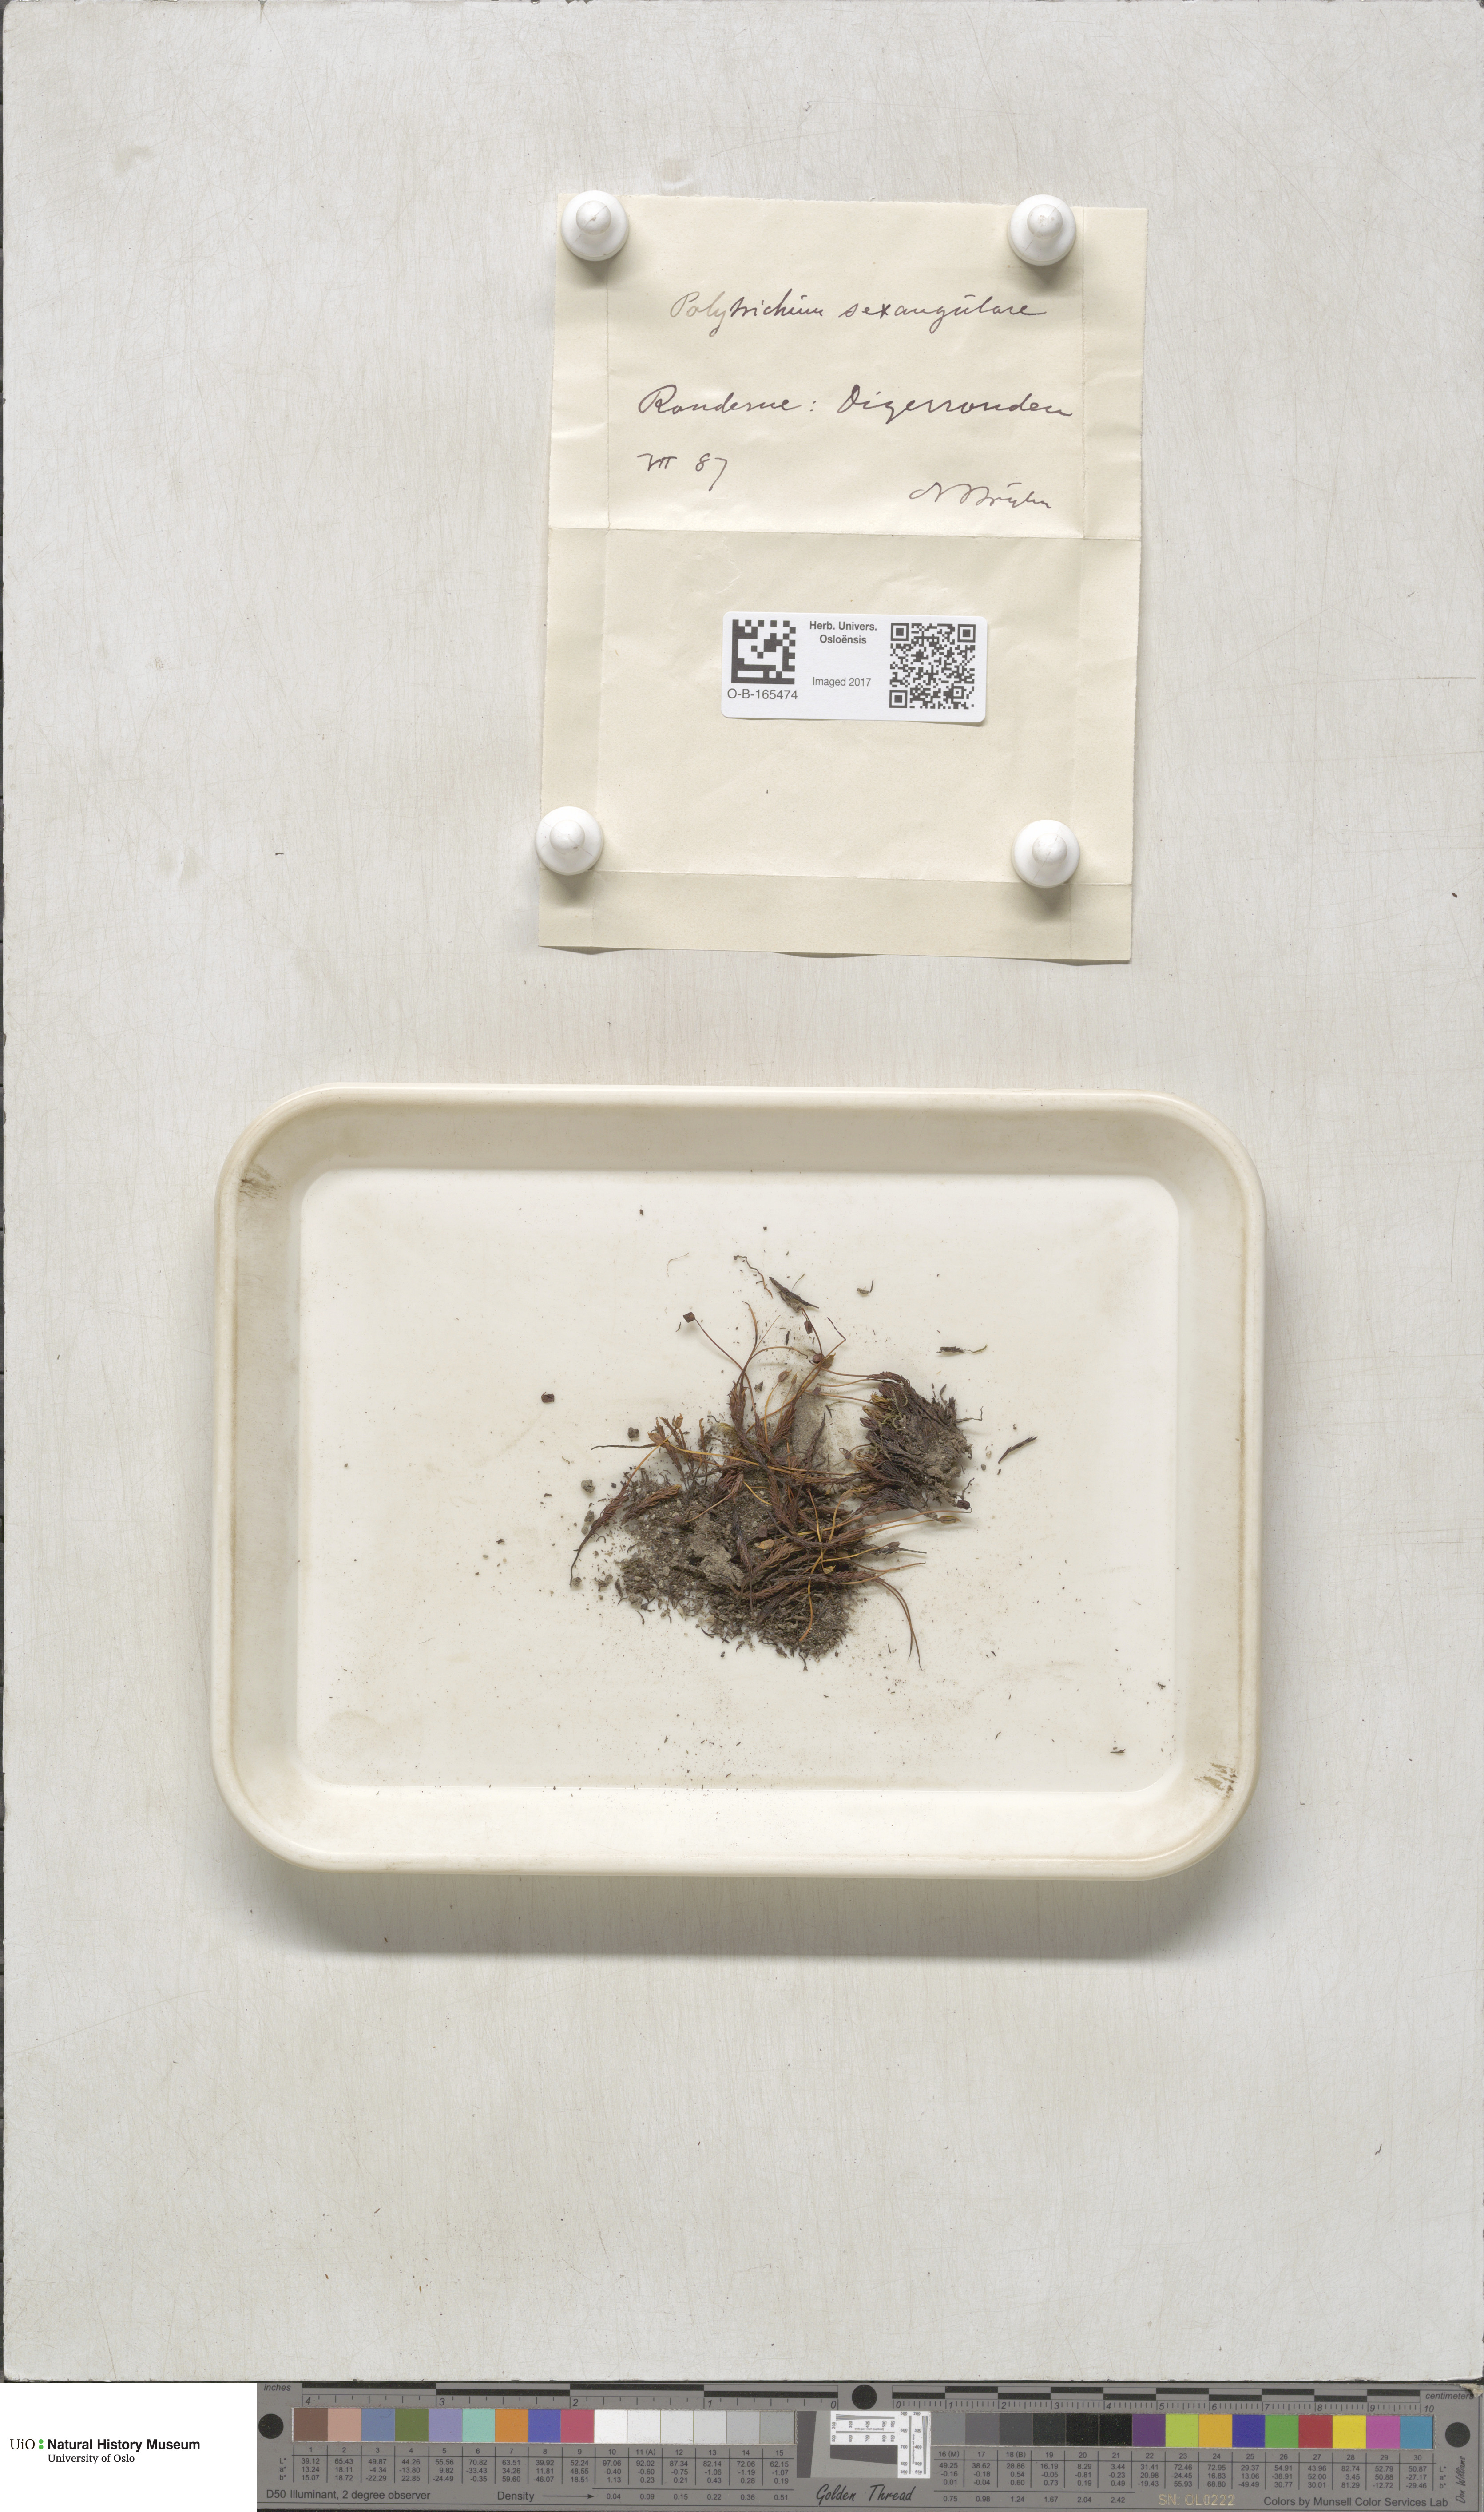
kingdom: Plantae
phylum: Bryophyta
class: Polytrichopsida
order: Polytrichales
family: Polytrichaceae
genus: Polytrichastrum
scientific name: Polytrichastrum sexangulare
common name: Northern haircap
